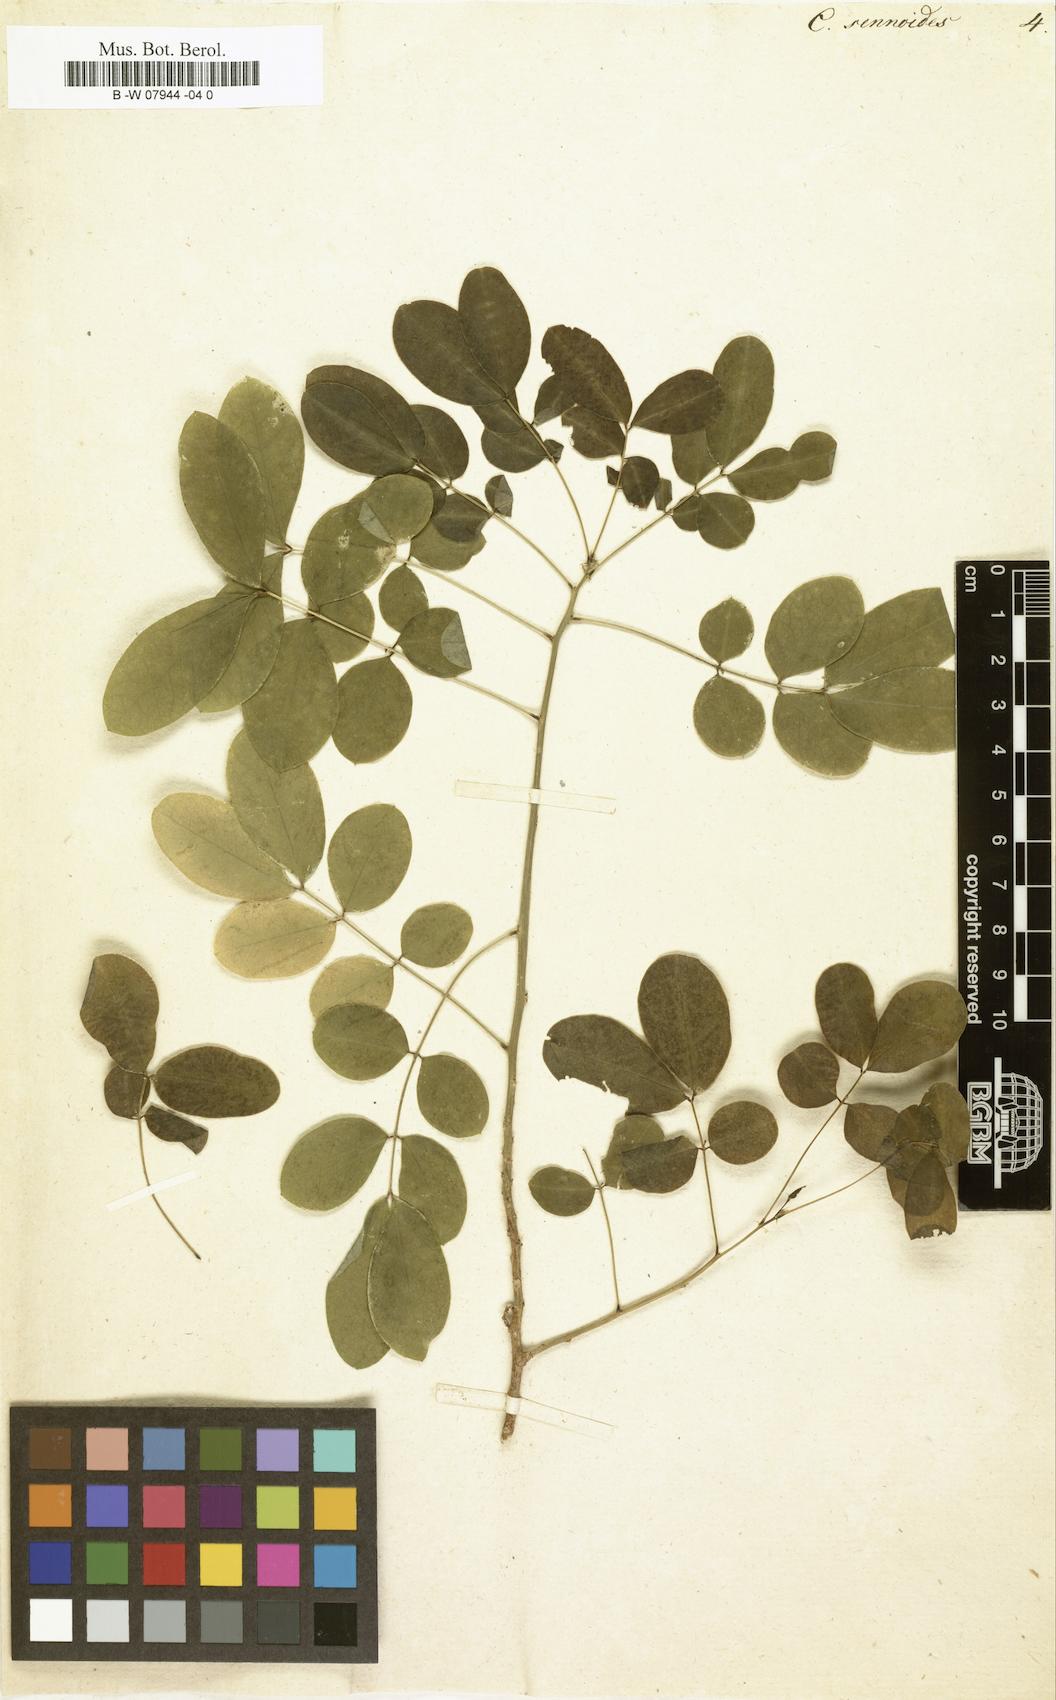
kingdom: Plantae
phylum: Tracheophyta
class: Magnoliopsida
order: Fabales
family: Fabaceae
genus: Senna
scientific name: Senna bicapsularis
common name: Christmasbush
